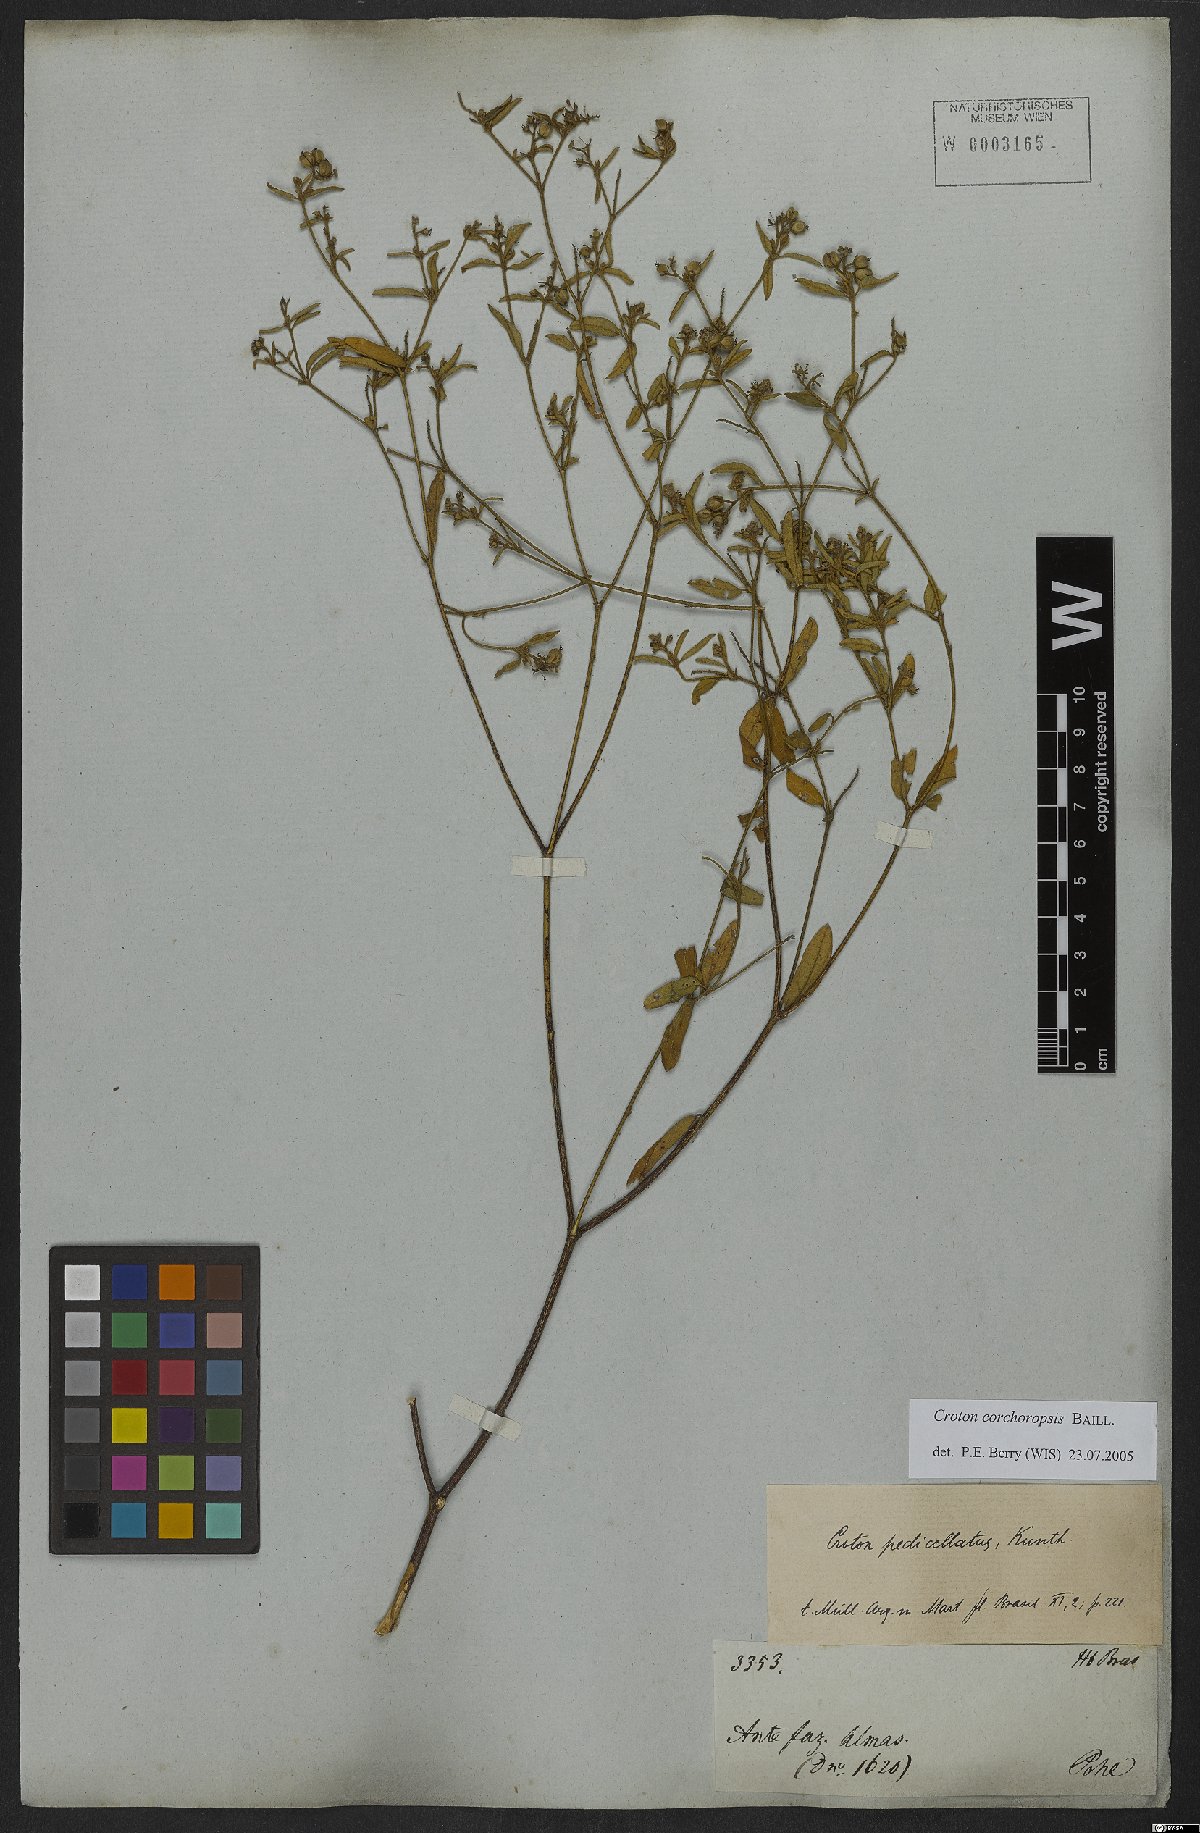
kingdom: Plantae
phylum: Tracheophyta
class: Magnoliopsida
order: Malpighiales
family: Euphorbiaceae
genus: Croton
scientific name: Croton corchoropsis
